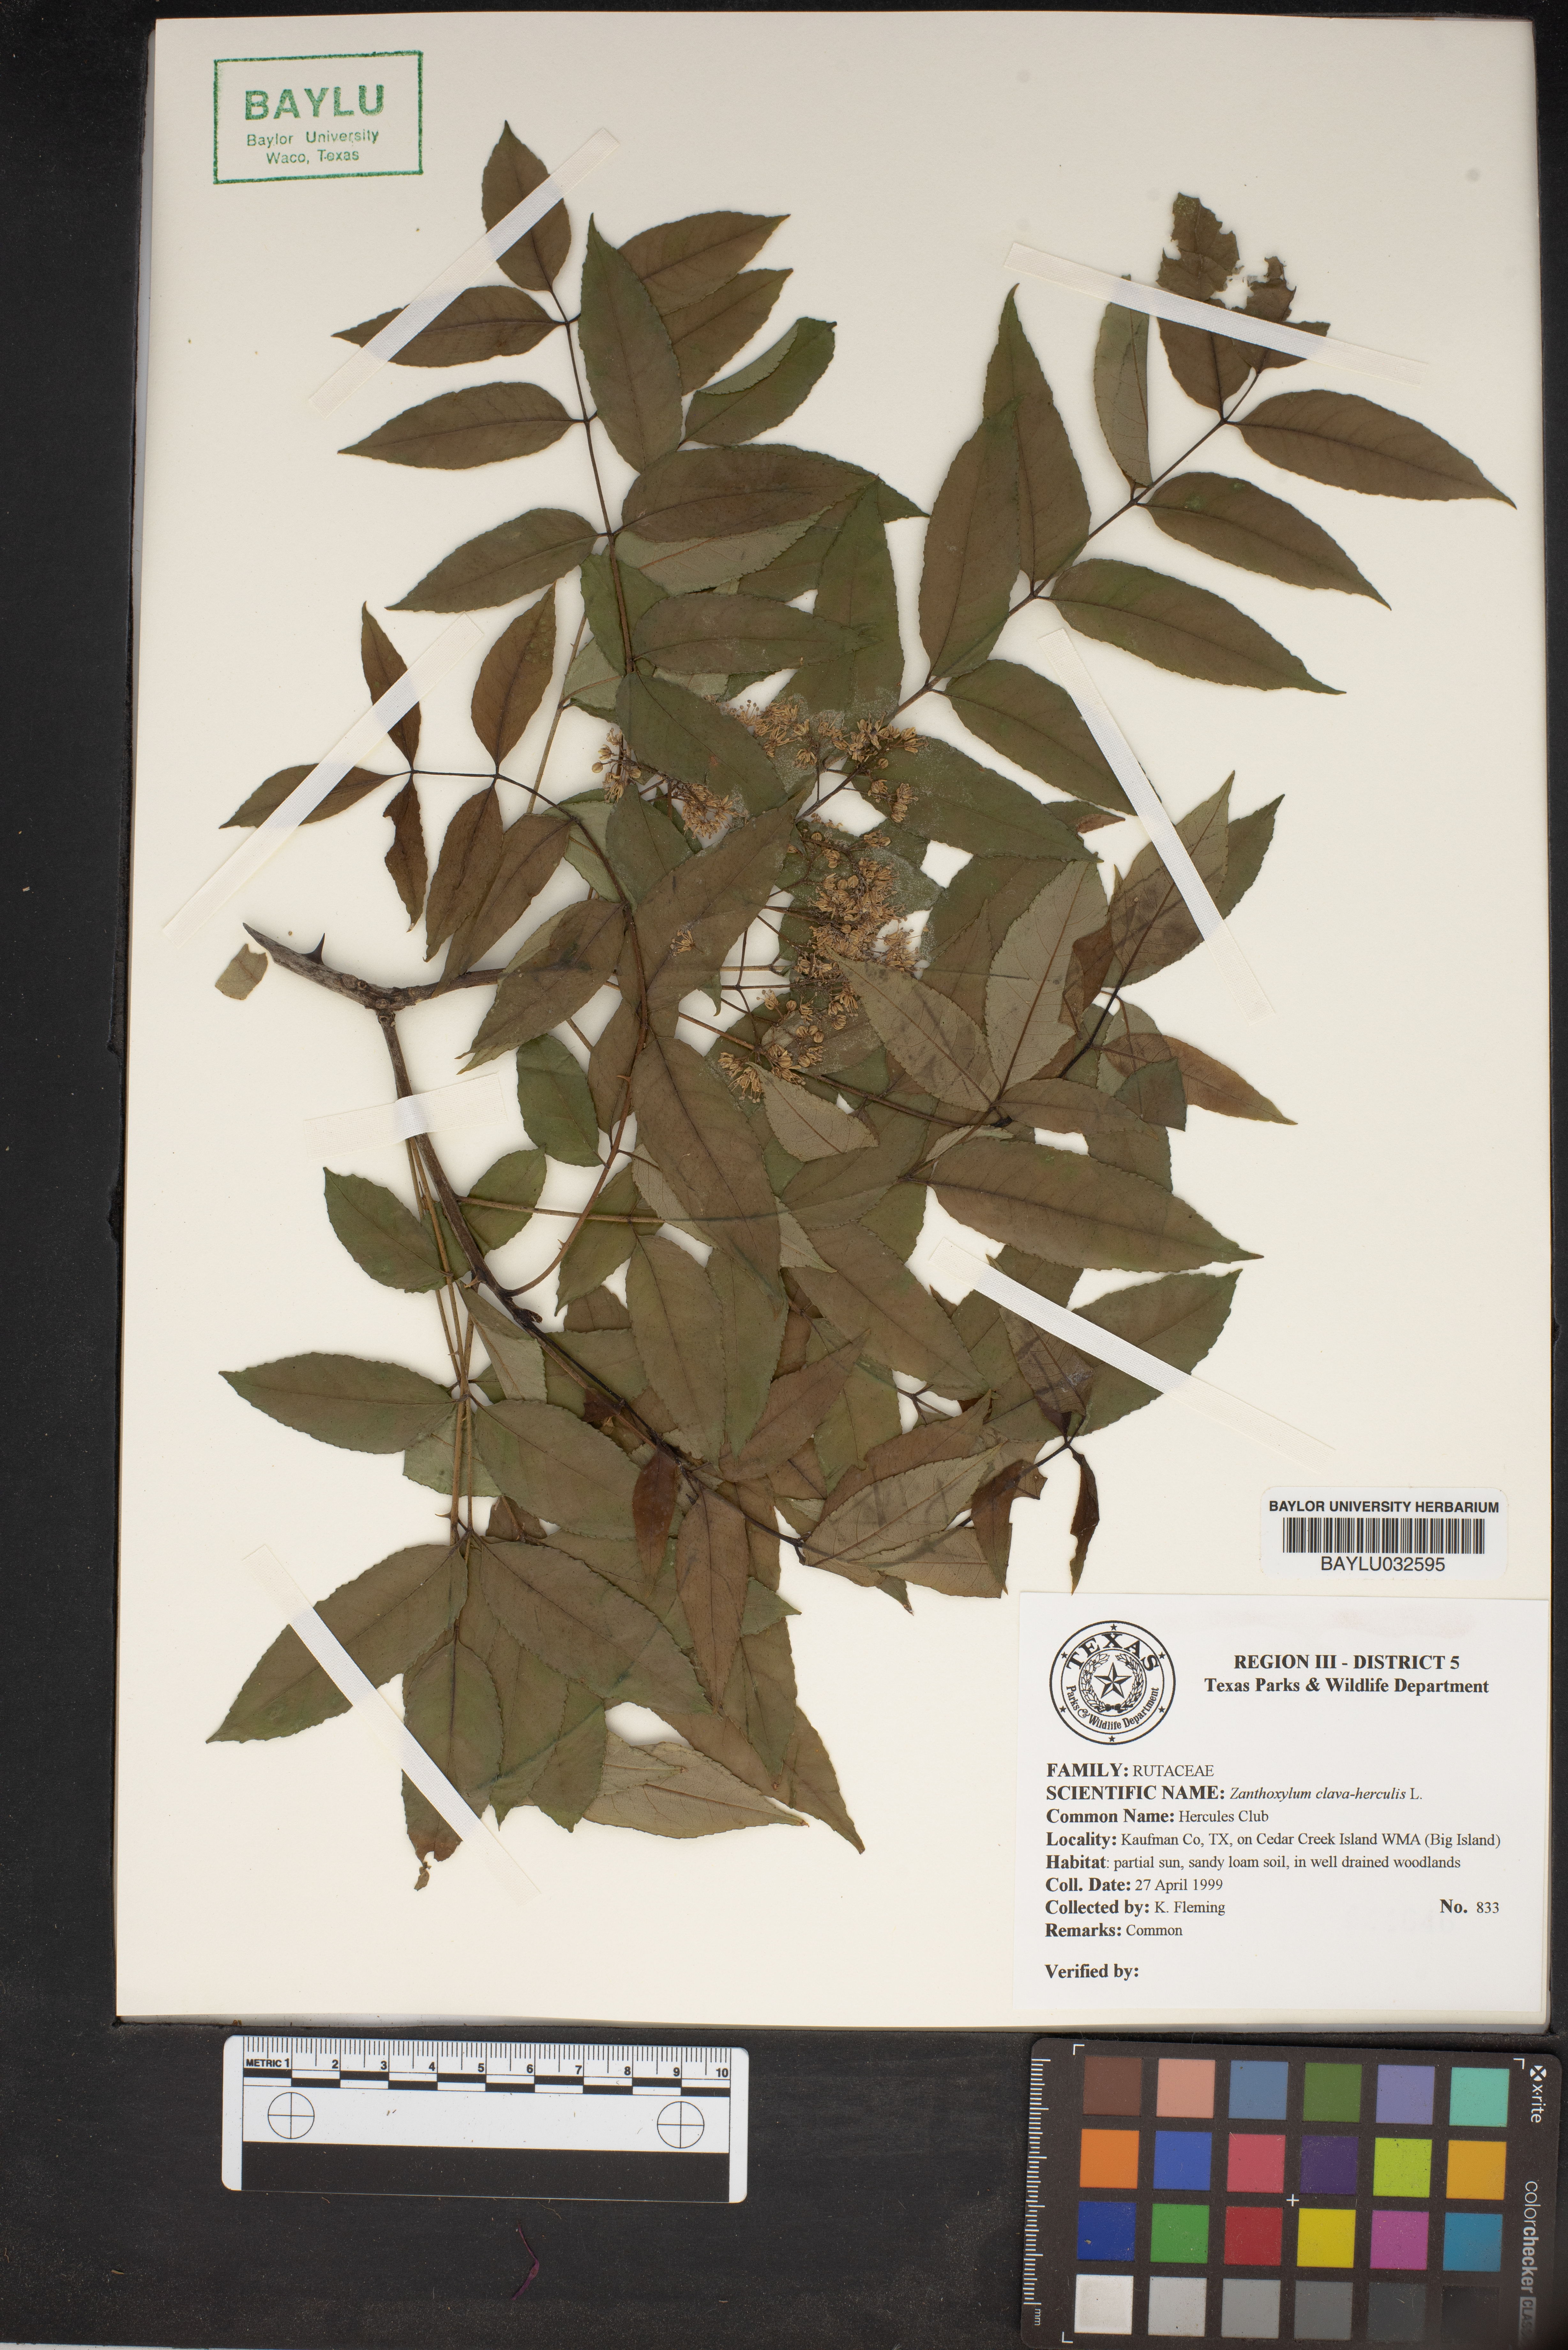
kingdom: Plantae
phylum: Tracheophyta
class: Magnoliopsida
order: Sapindales
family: Rutaceae
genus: Zanthoxylum
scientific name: Zanthoxylum avicennae
